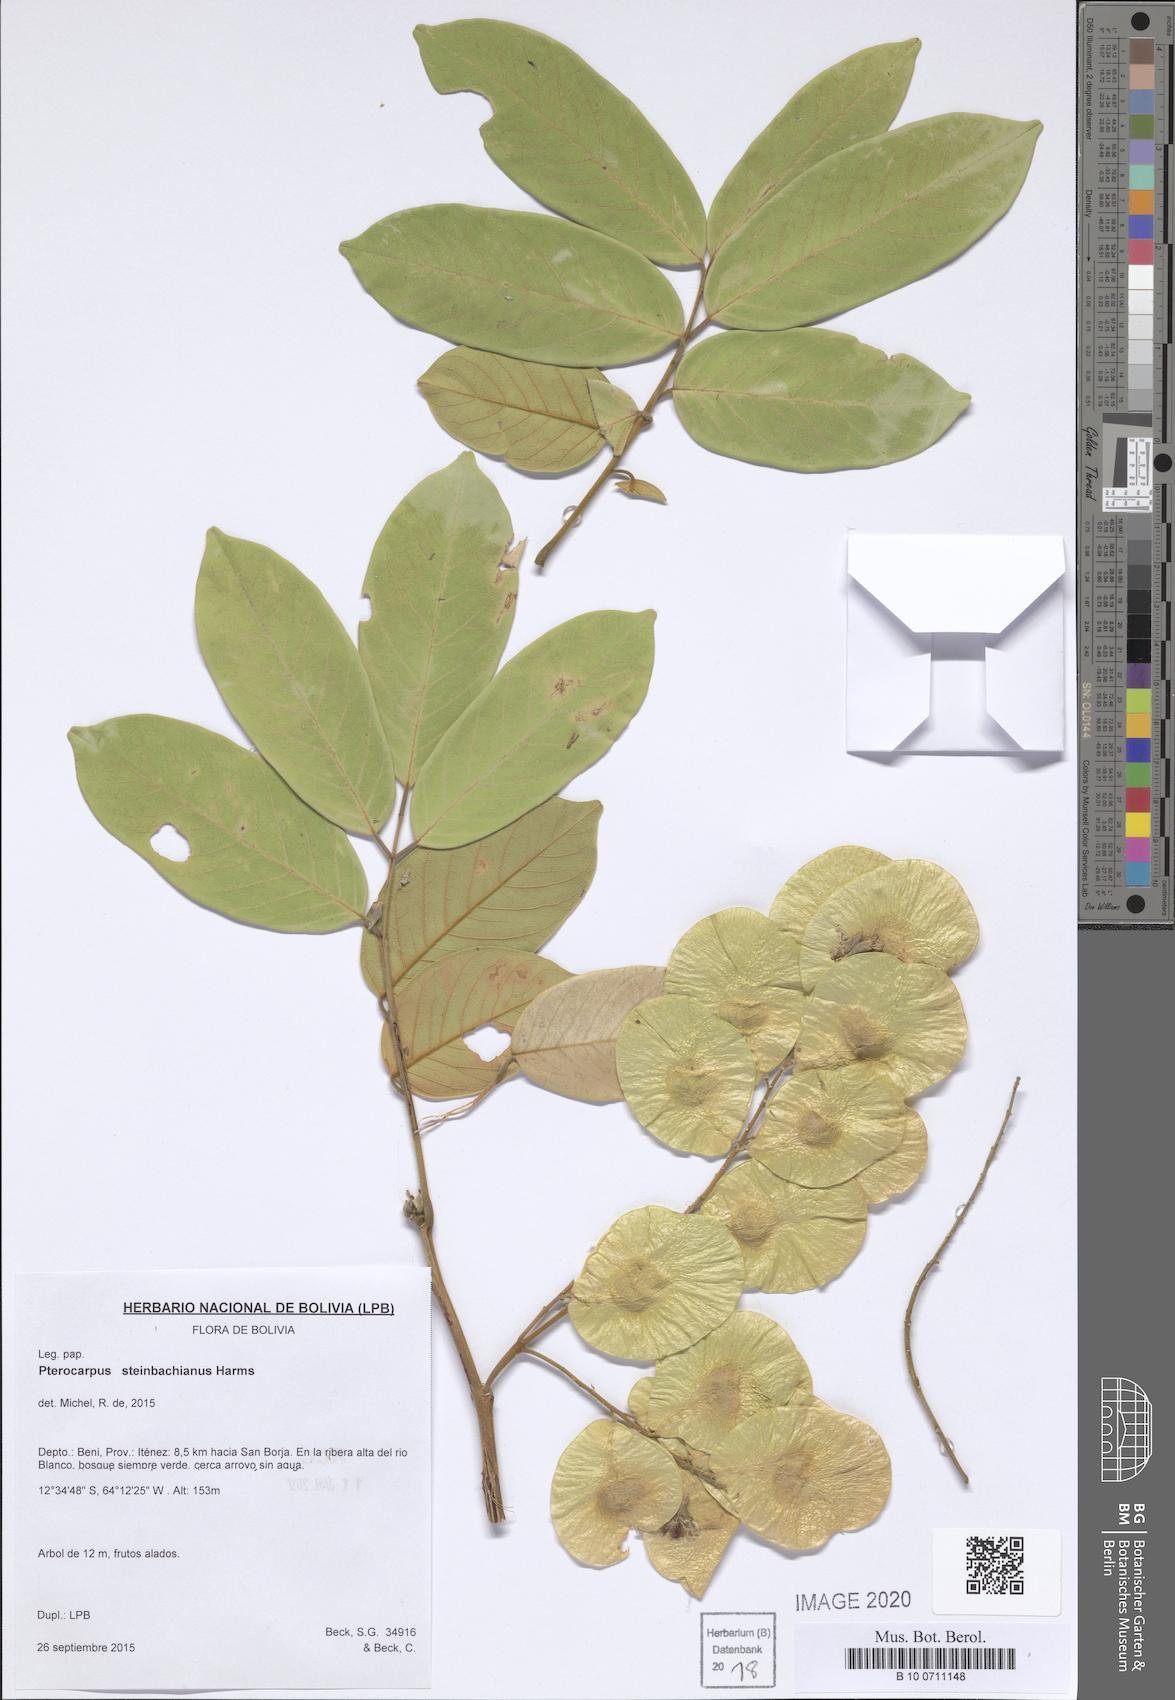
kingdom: Plantae
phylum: Tracheophyta
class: Magnoliopsida
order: Fabales
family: Fabaceae
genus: Pterocarpus
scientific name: Pterocarpus steinbachianus
